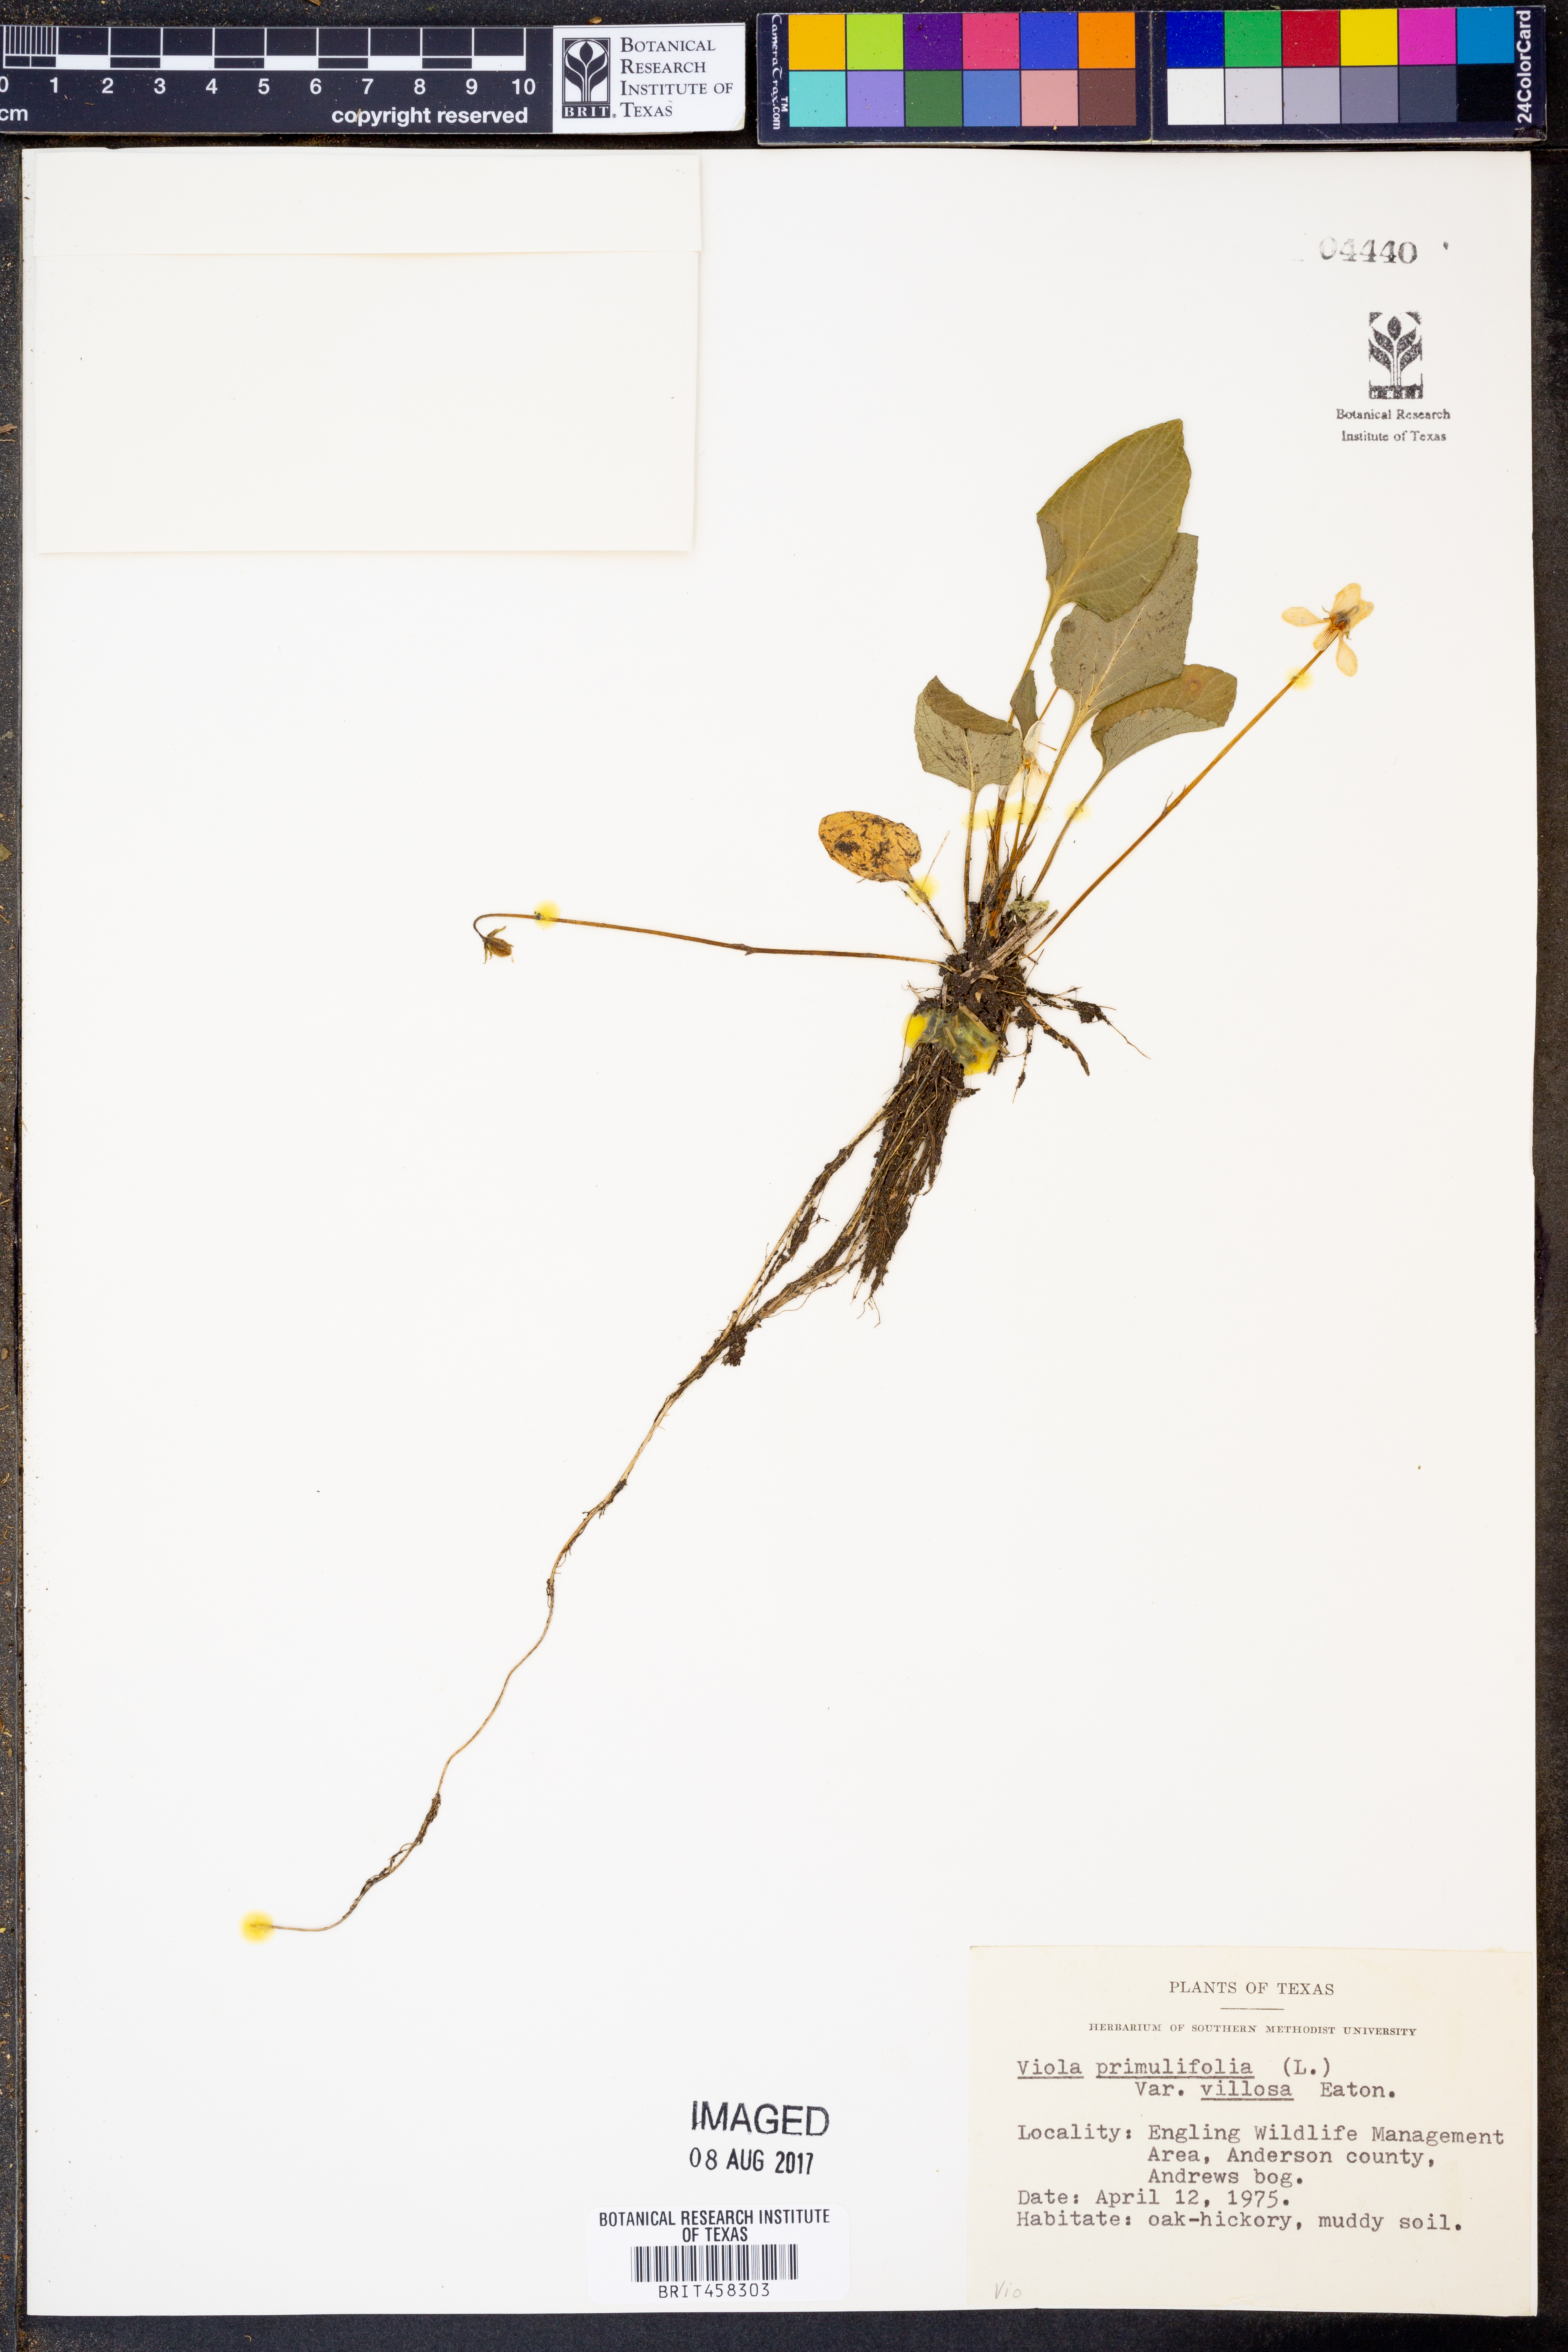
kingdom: Plantae
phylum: Tracheophyta
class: Magnoliopsida
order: Malpighiales
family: Violaceae
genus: Viola
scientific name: Viola primulifolia
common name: Primrose-leaf violet
